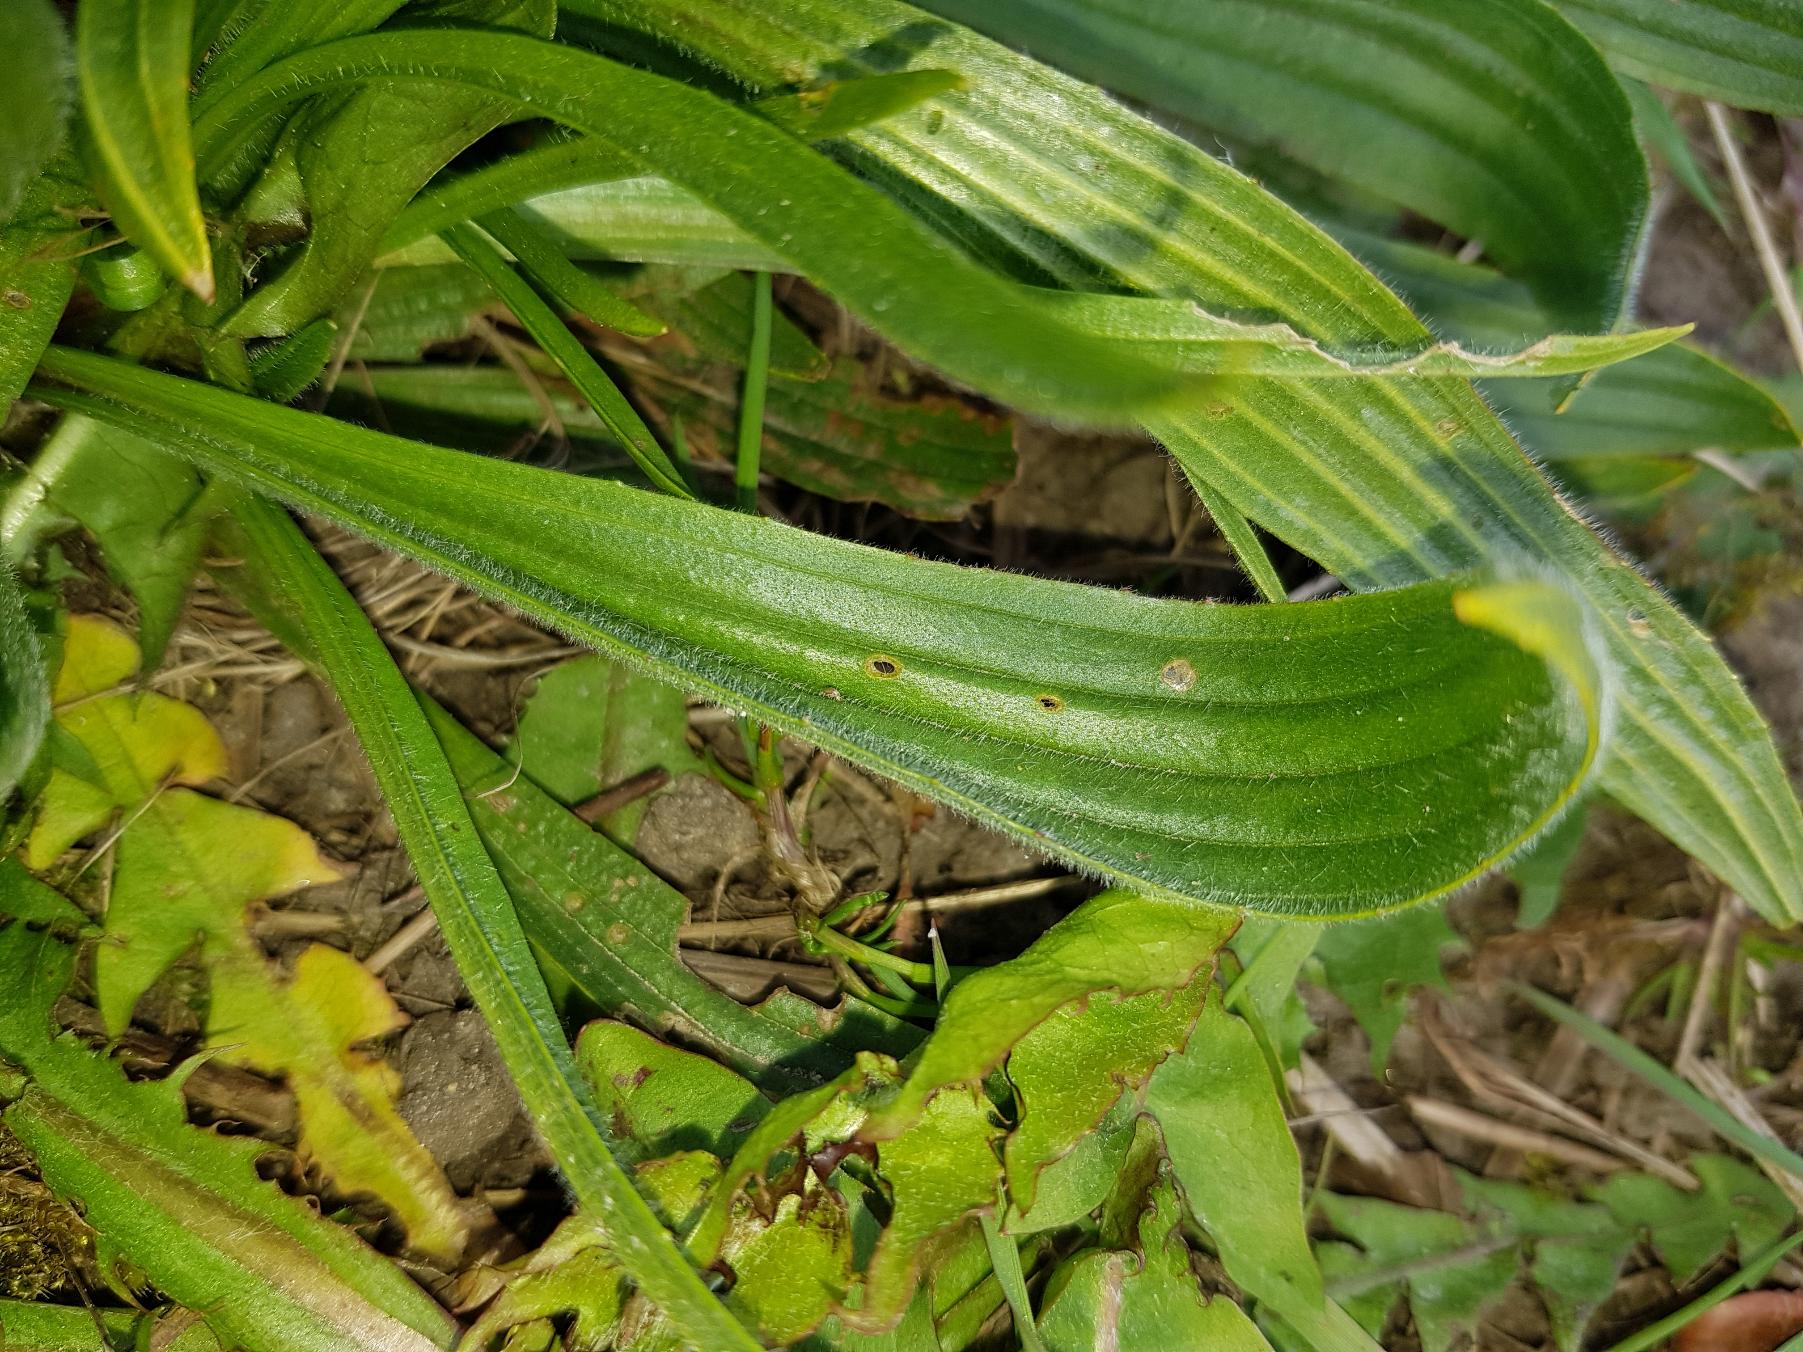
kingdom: Plantae
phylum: Tracheophyta
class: Magnoliopsida
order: Lamiales
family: Plantaginaceae
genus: Plantago
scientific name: Plantago lanceolata
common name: Lancet-vejbred
